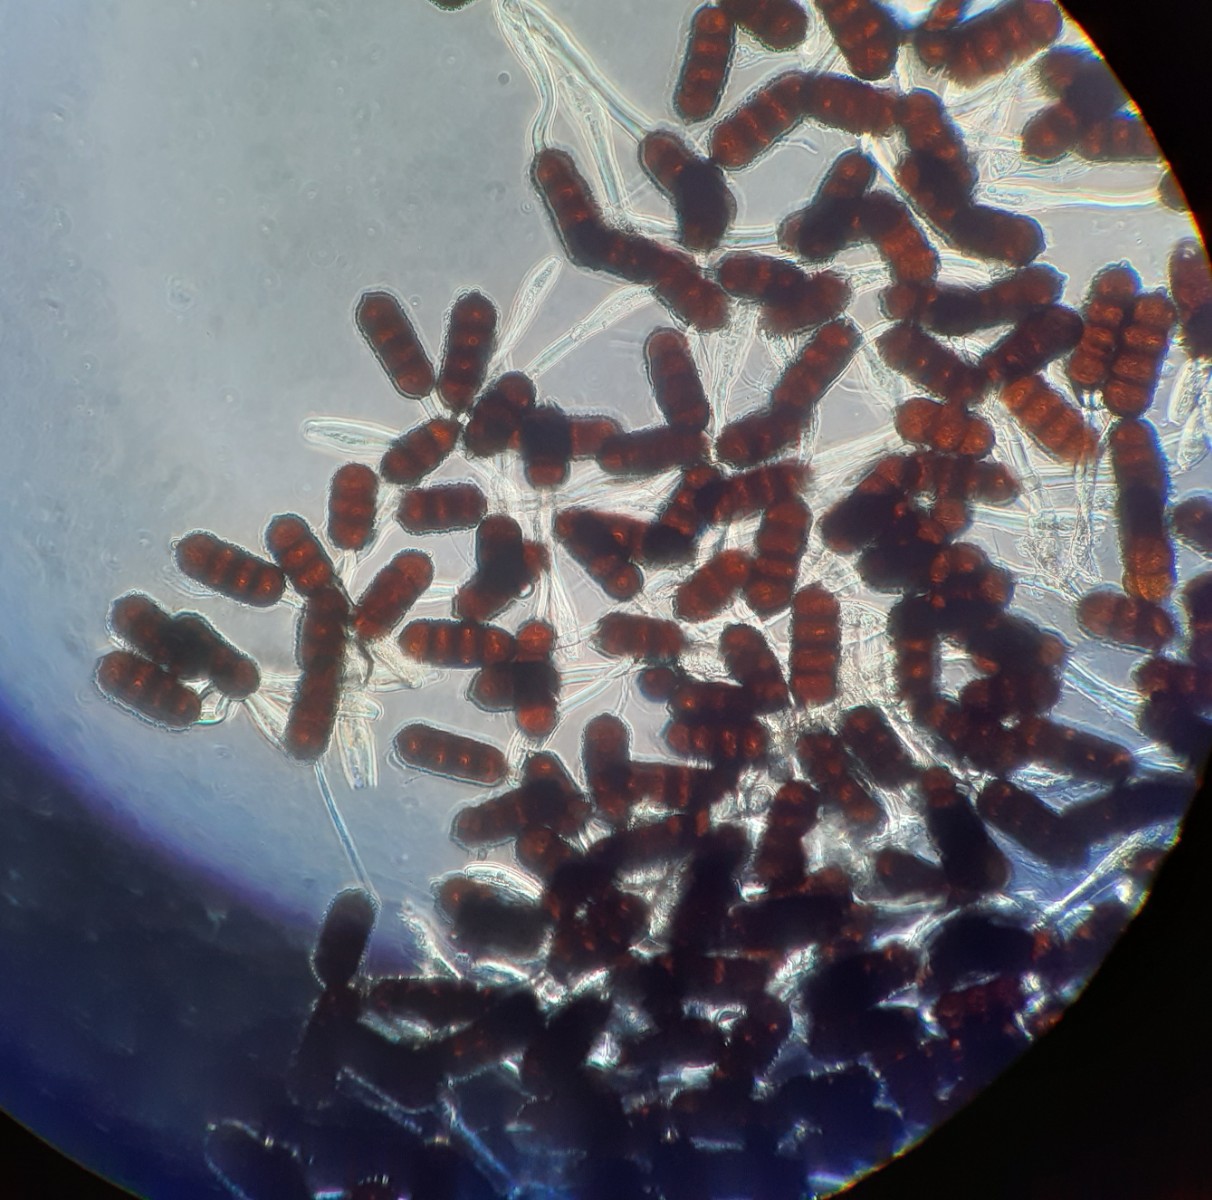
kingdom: Fungi
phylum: Basidiomycota
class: Pucciniomycetes
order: Pucciniales
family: Phragmidiaceae
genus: Phragmidium
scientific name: Phragmidium violaceum
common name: violet flercellerust
